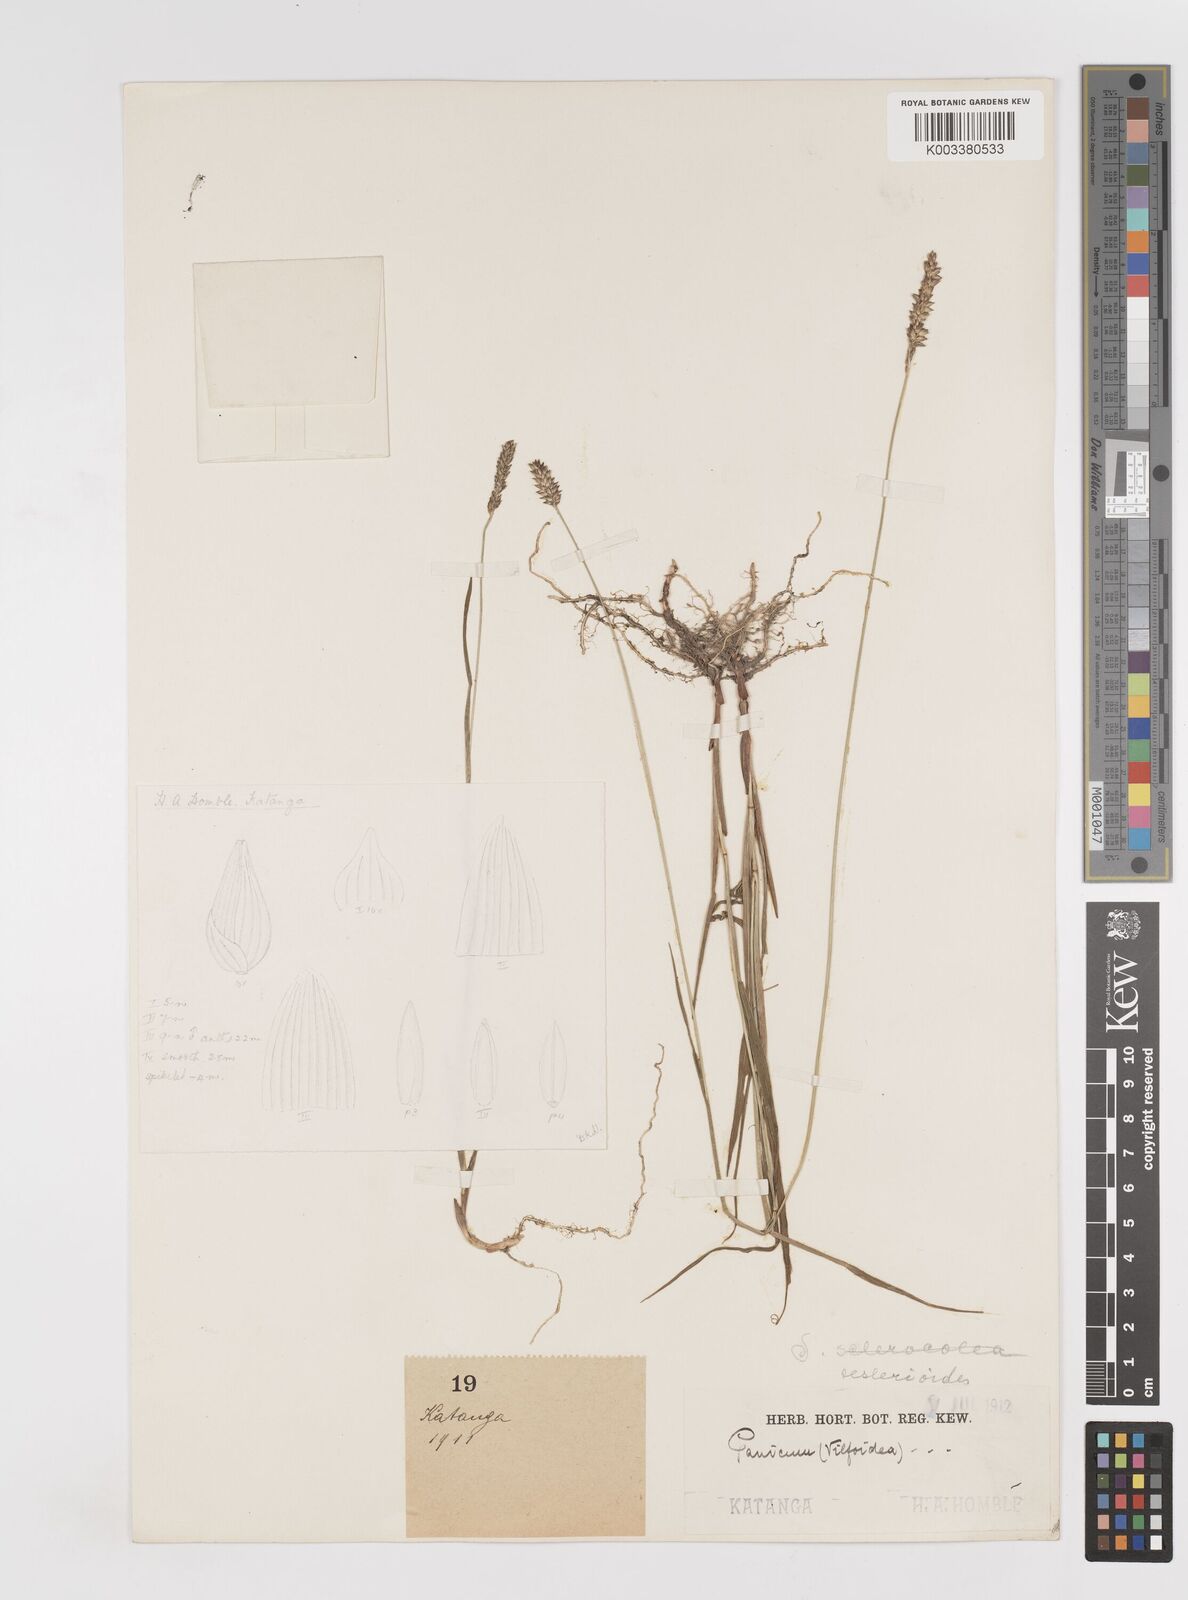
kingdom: Plantae
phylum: Tracheophyta
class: Liliopsida
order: Poales
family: Poaceae
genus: Sacciolepis
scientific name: Sacciolepis seslerioides
